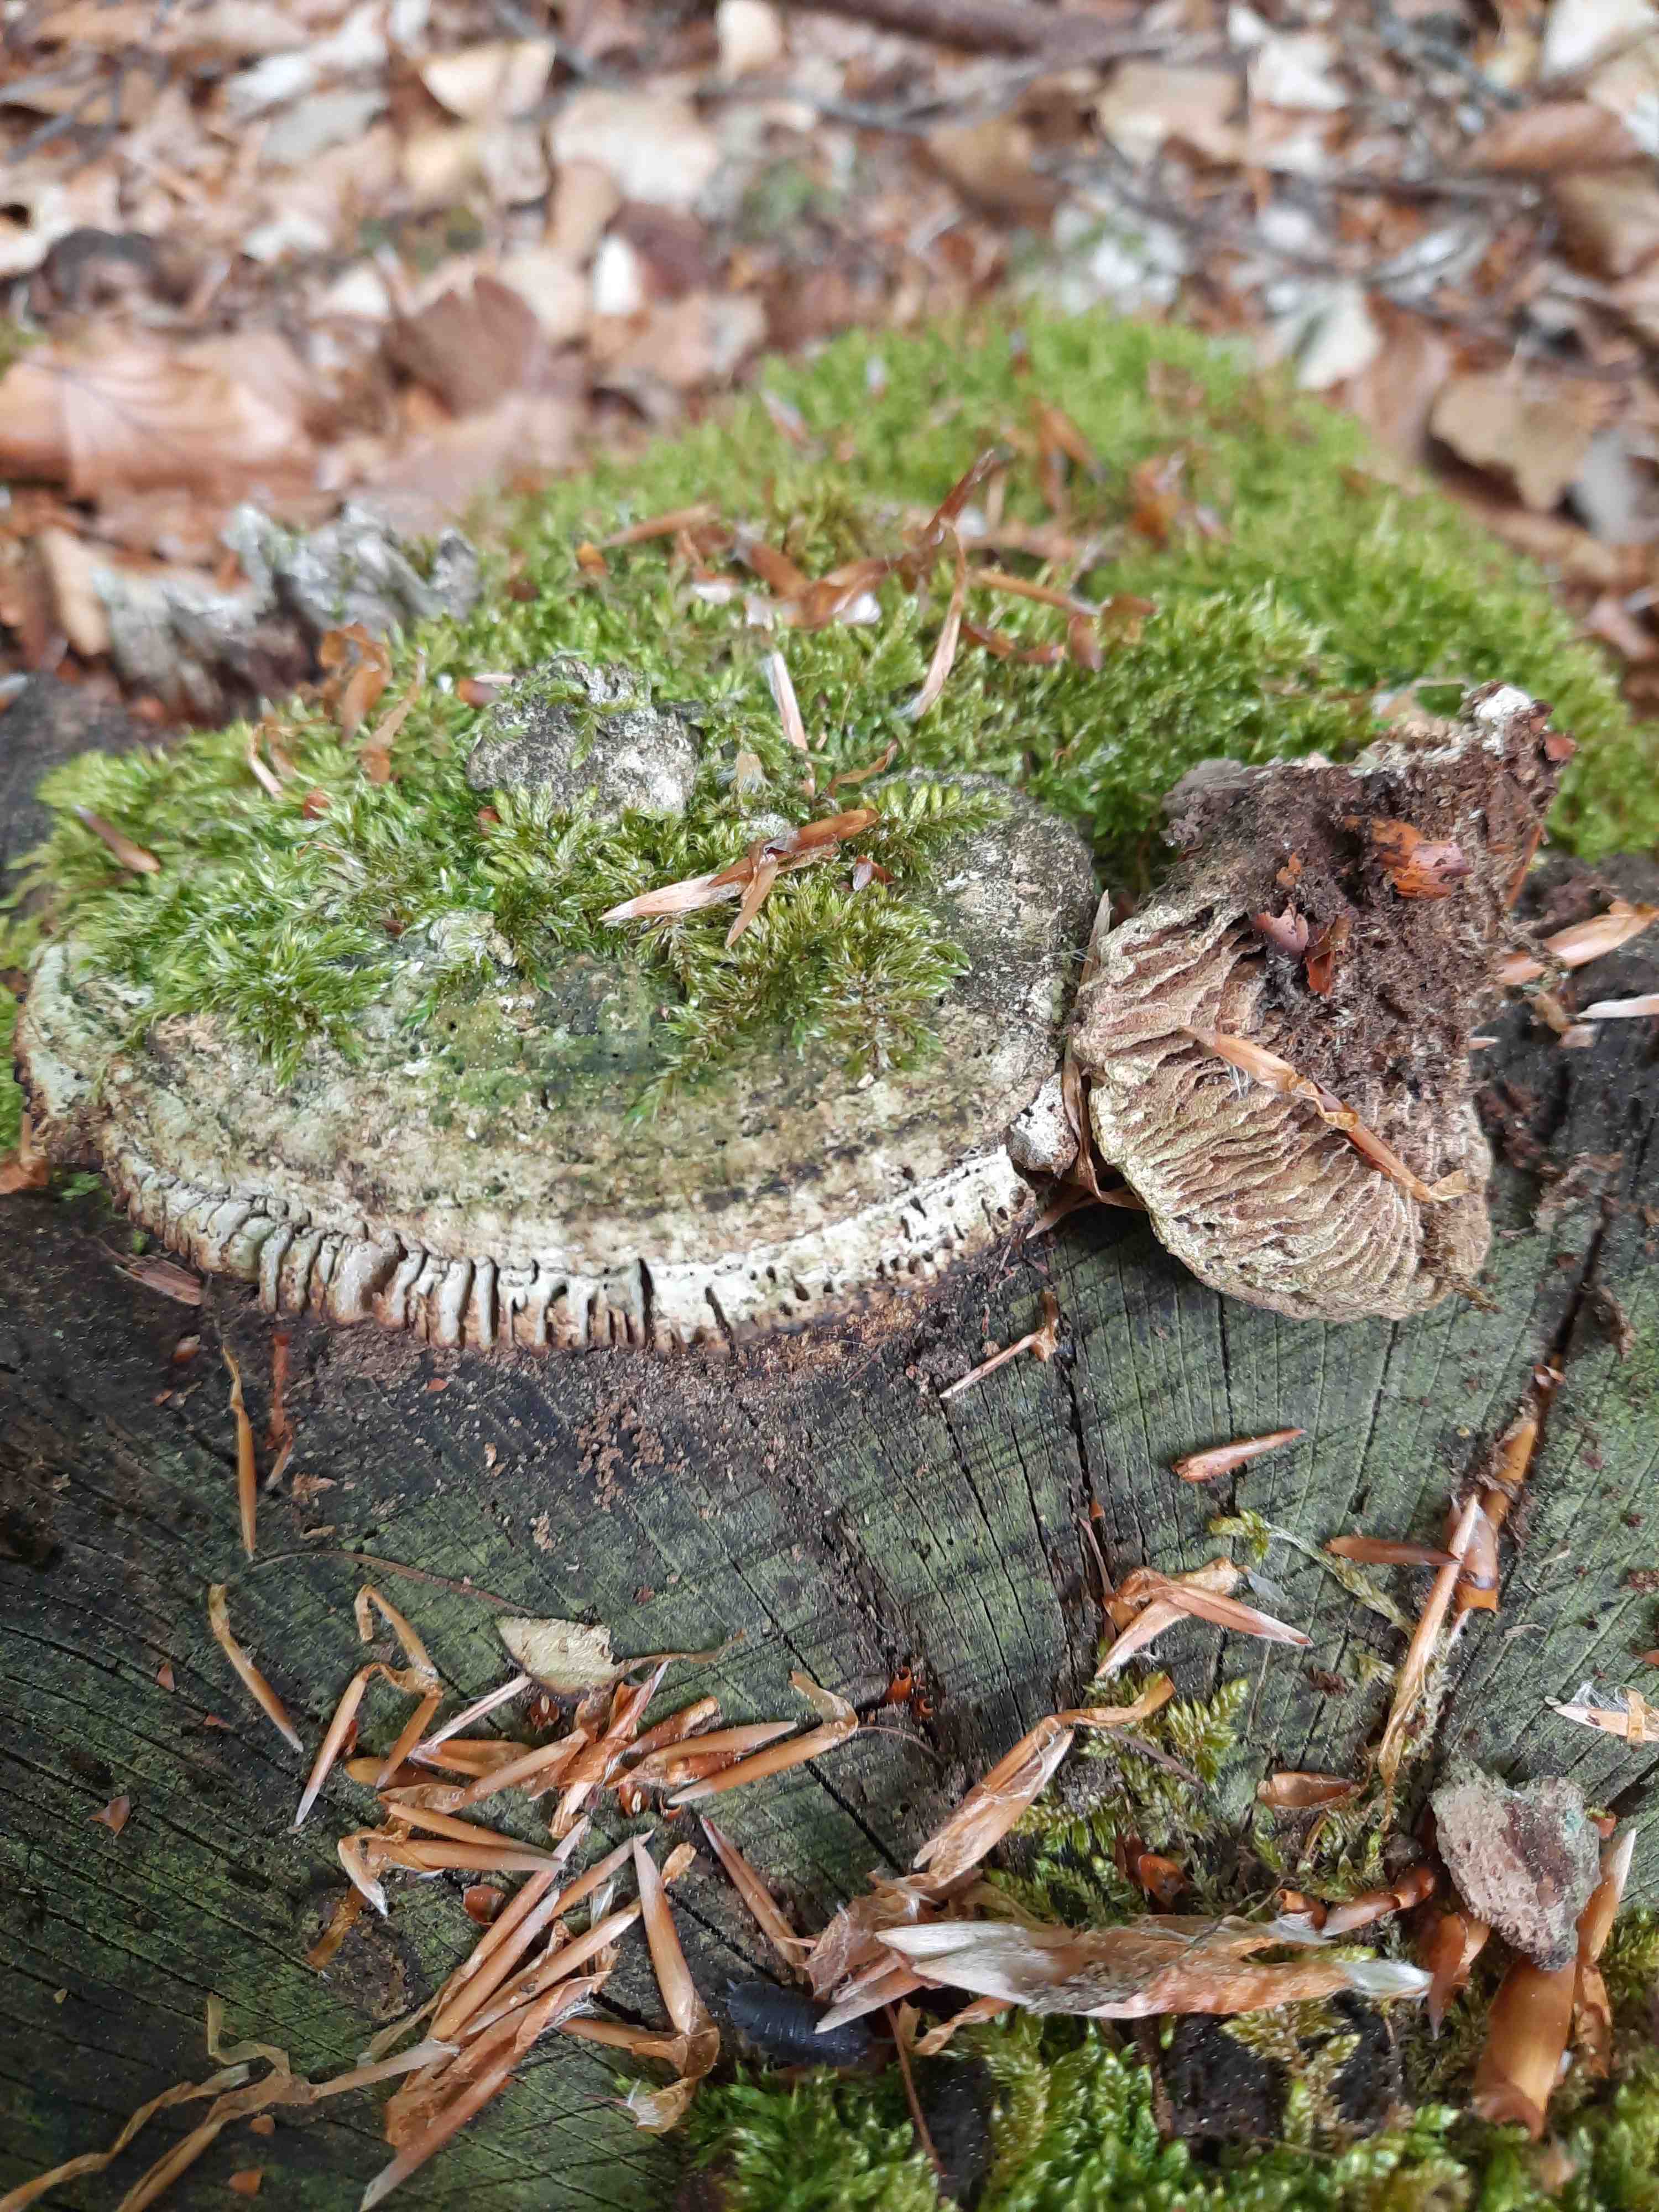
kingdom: Fungi
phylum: Basidiomycota
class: Agaricomycetes
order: Polyporales
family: Fomitopsidaceae
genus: Daedalea
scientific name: Daedalea quercina
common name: ege-labyrintsvamp
